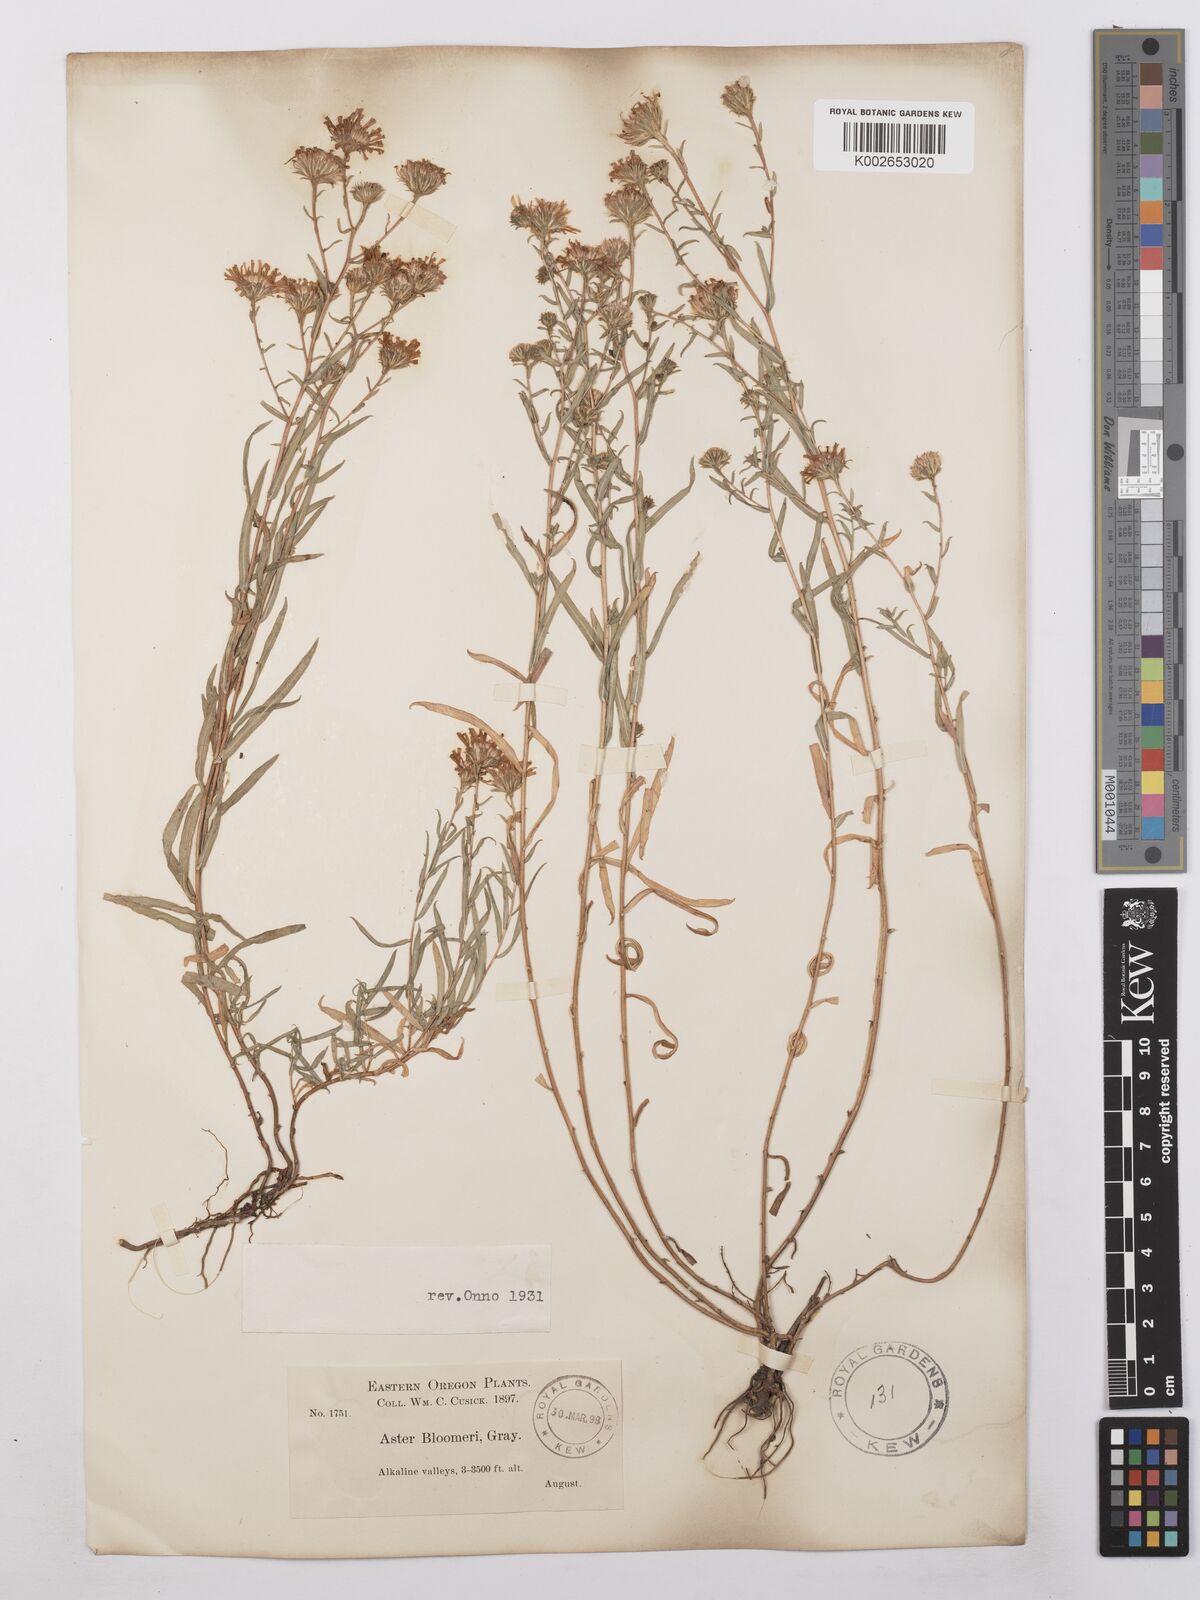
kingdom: Plantae
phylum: Tracheophyta
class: Magnoliopsida
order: Asterales
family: Asteraceae
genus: Symphyotrichum
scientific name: Symphyotrichum campestre
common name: Meadow aster
